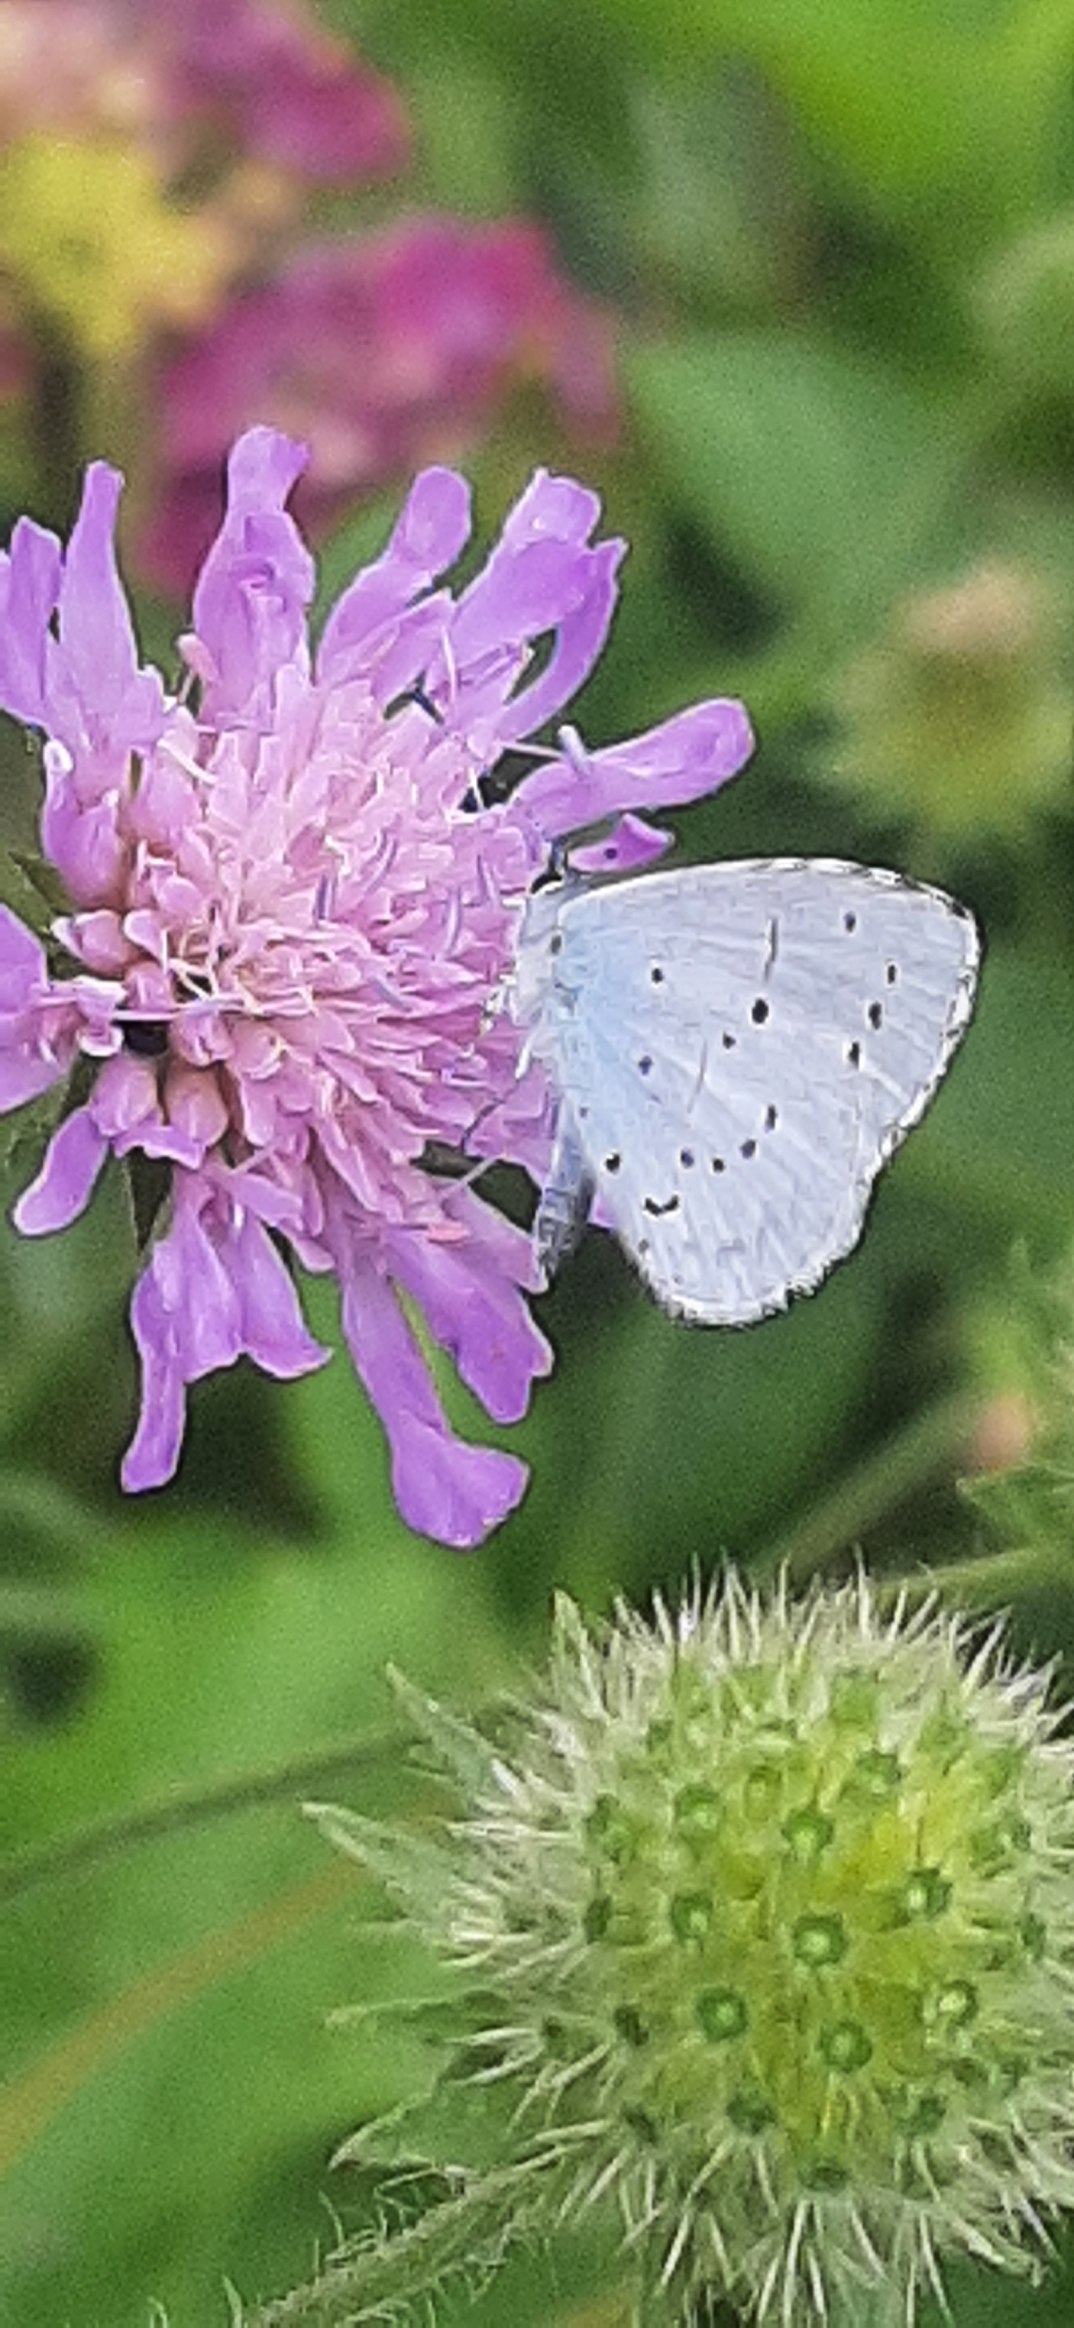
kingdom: Animalia
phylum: Arthropoda
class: Insecta
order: Lepidoptera
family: Lycaenidae
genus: Celastrina
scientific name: Celastrina argiolus
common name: Skovblåfugl
